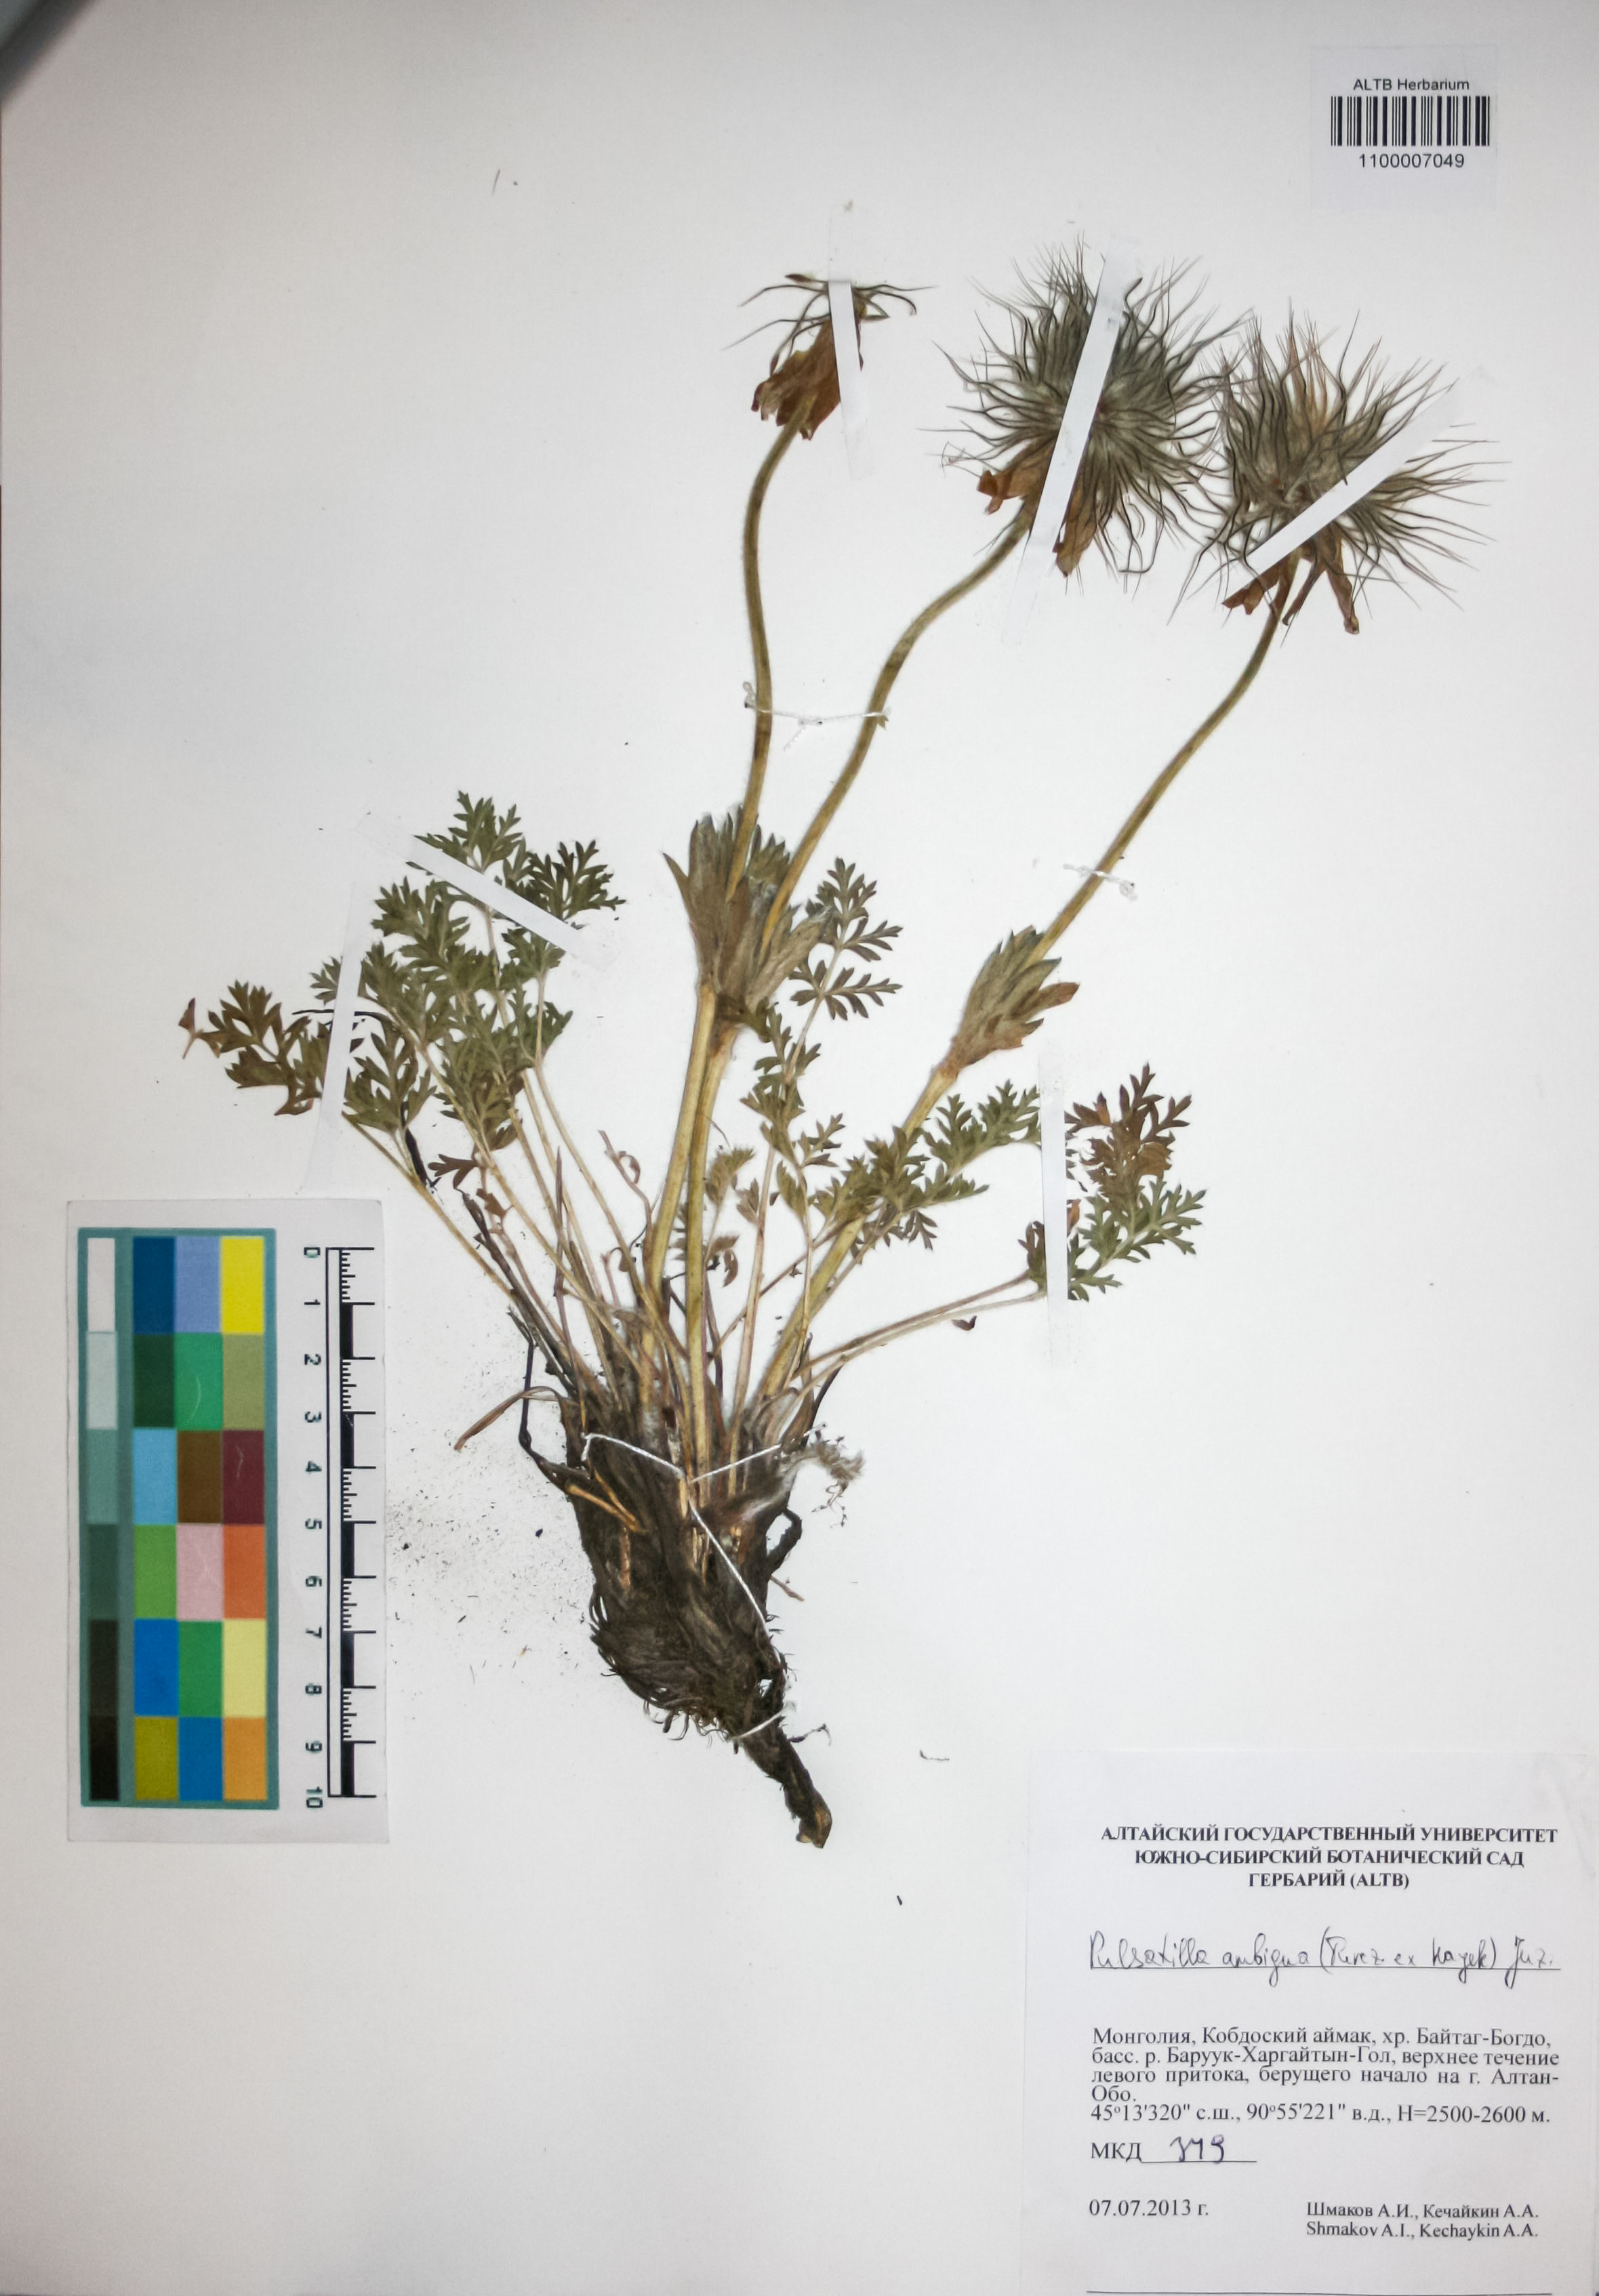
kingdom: Plantae
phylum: Tracheophyta
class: Magnoliopsida
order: Ranunculales
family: Ranunculaceae
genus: Pulsatilla
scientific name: Pulsatilla ambigua
